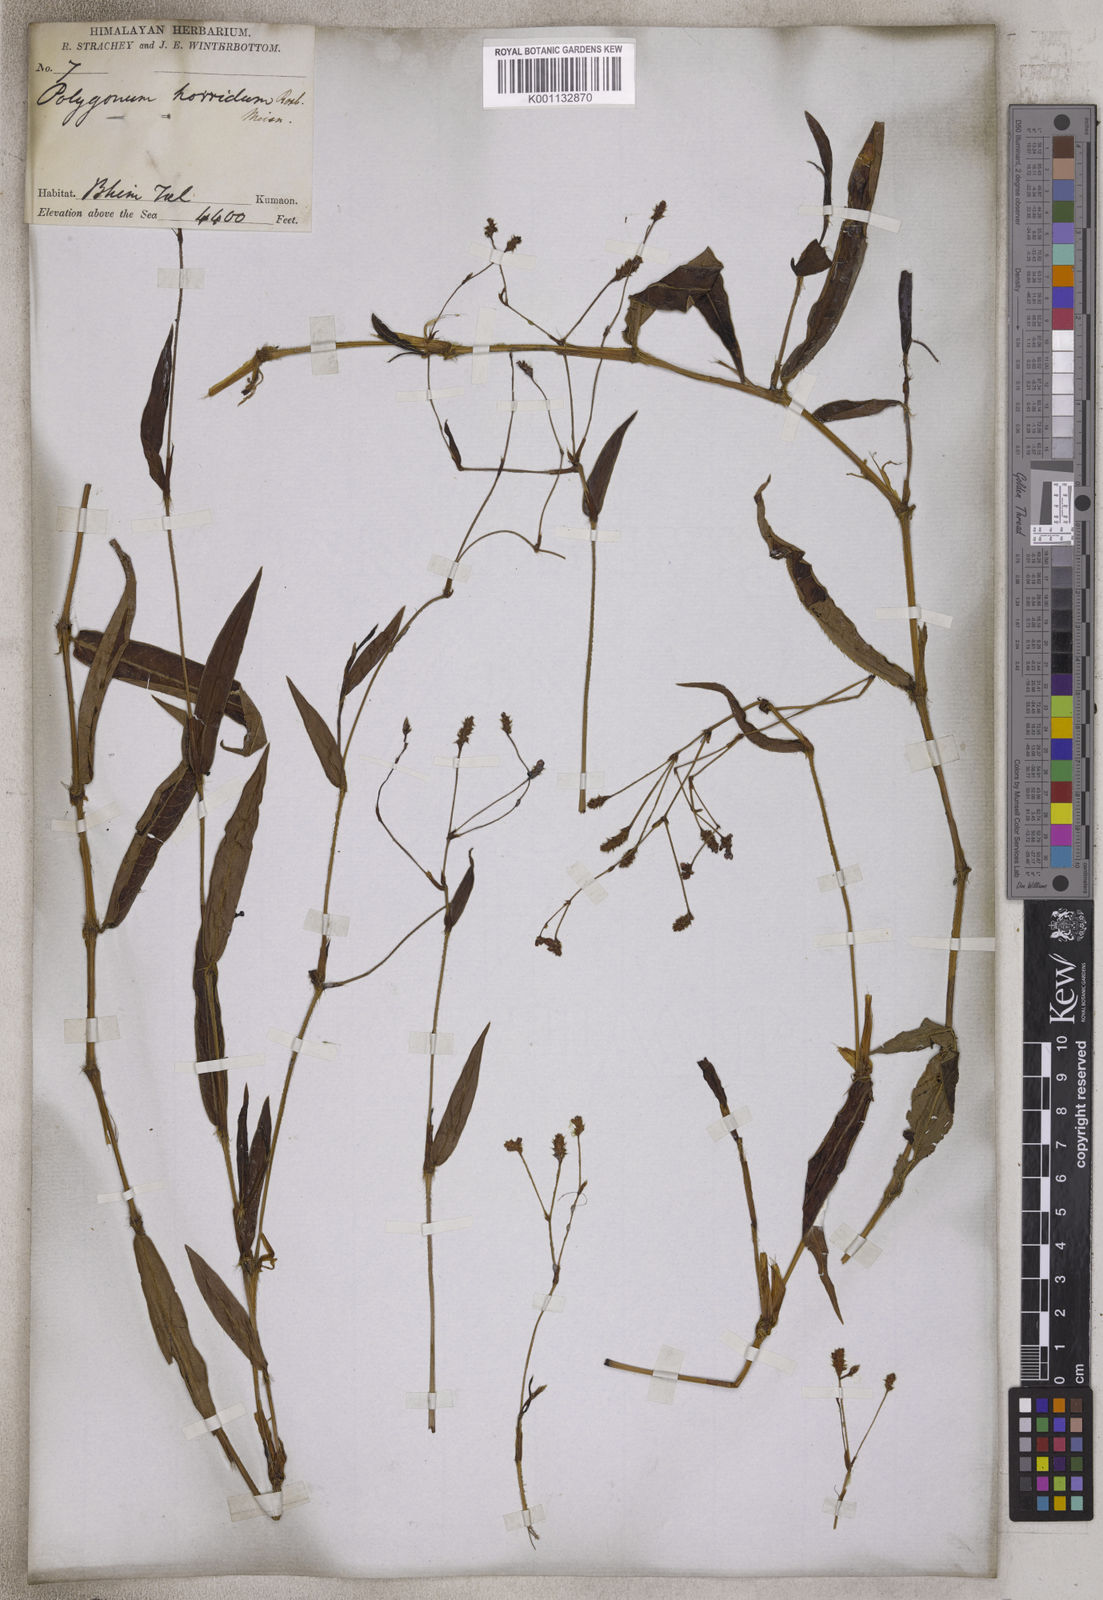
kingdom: Plantae
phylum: Tracheophyta
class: Magnoliopsida
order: Caryophyllales
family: Polygonaceae
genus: Persicaria
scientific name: Persicaria strigosa
